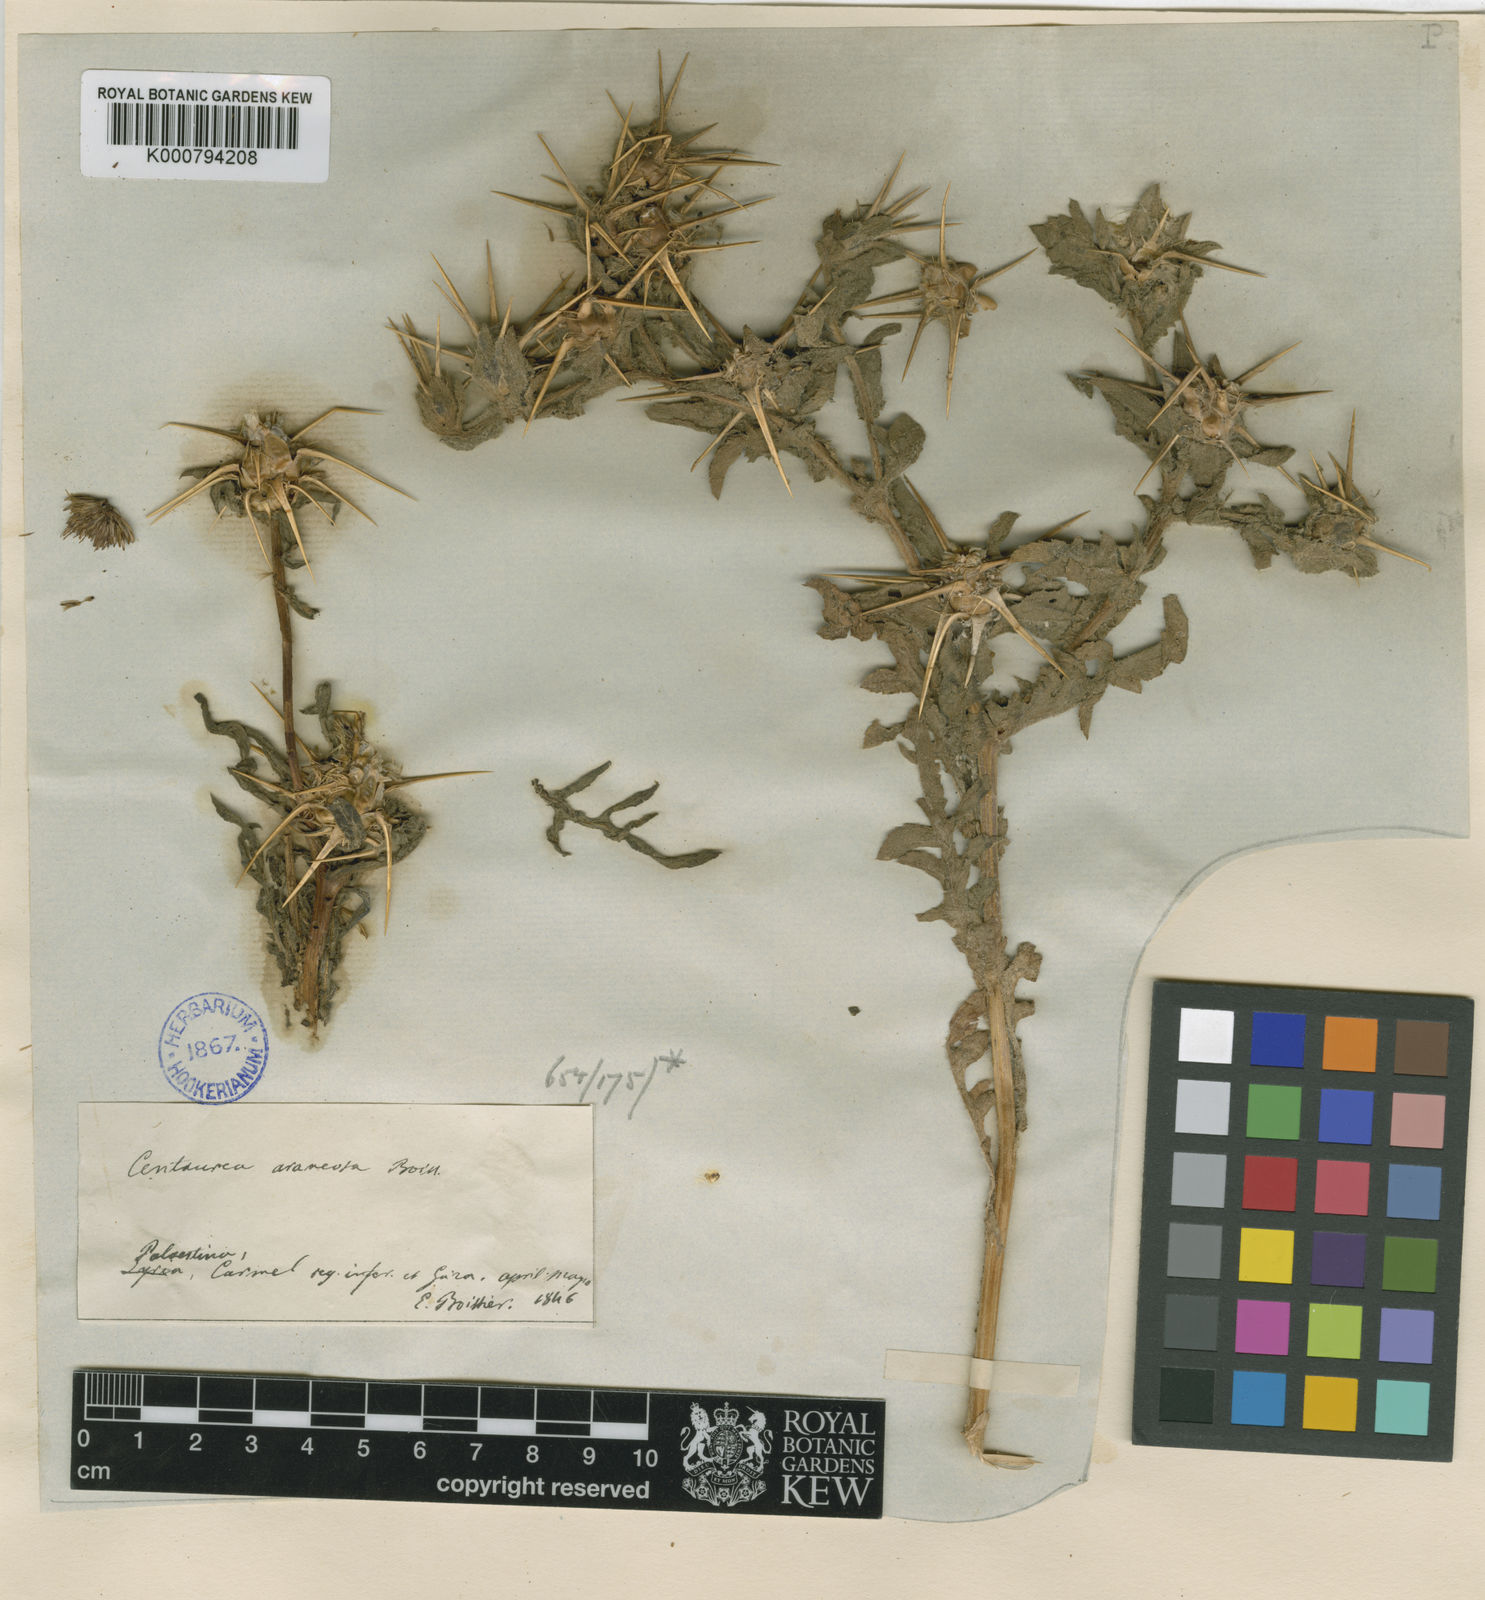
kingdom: Plantae
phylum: Tracheophyta
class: Magnoliopsida
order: Asterales
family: Asteraceae
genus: Centaurea
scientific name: Centaurea jordaniana
